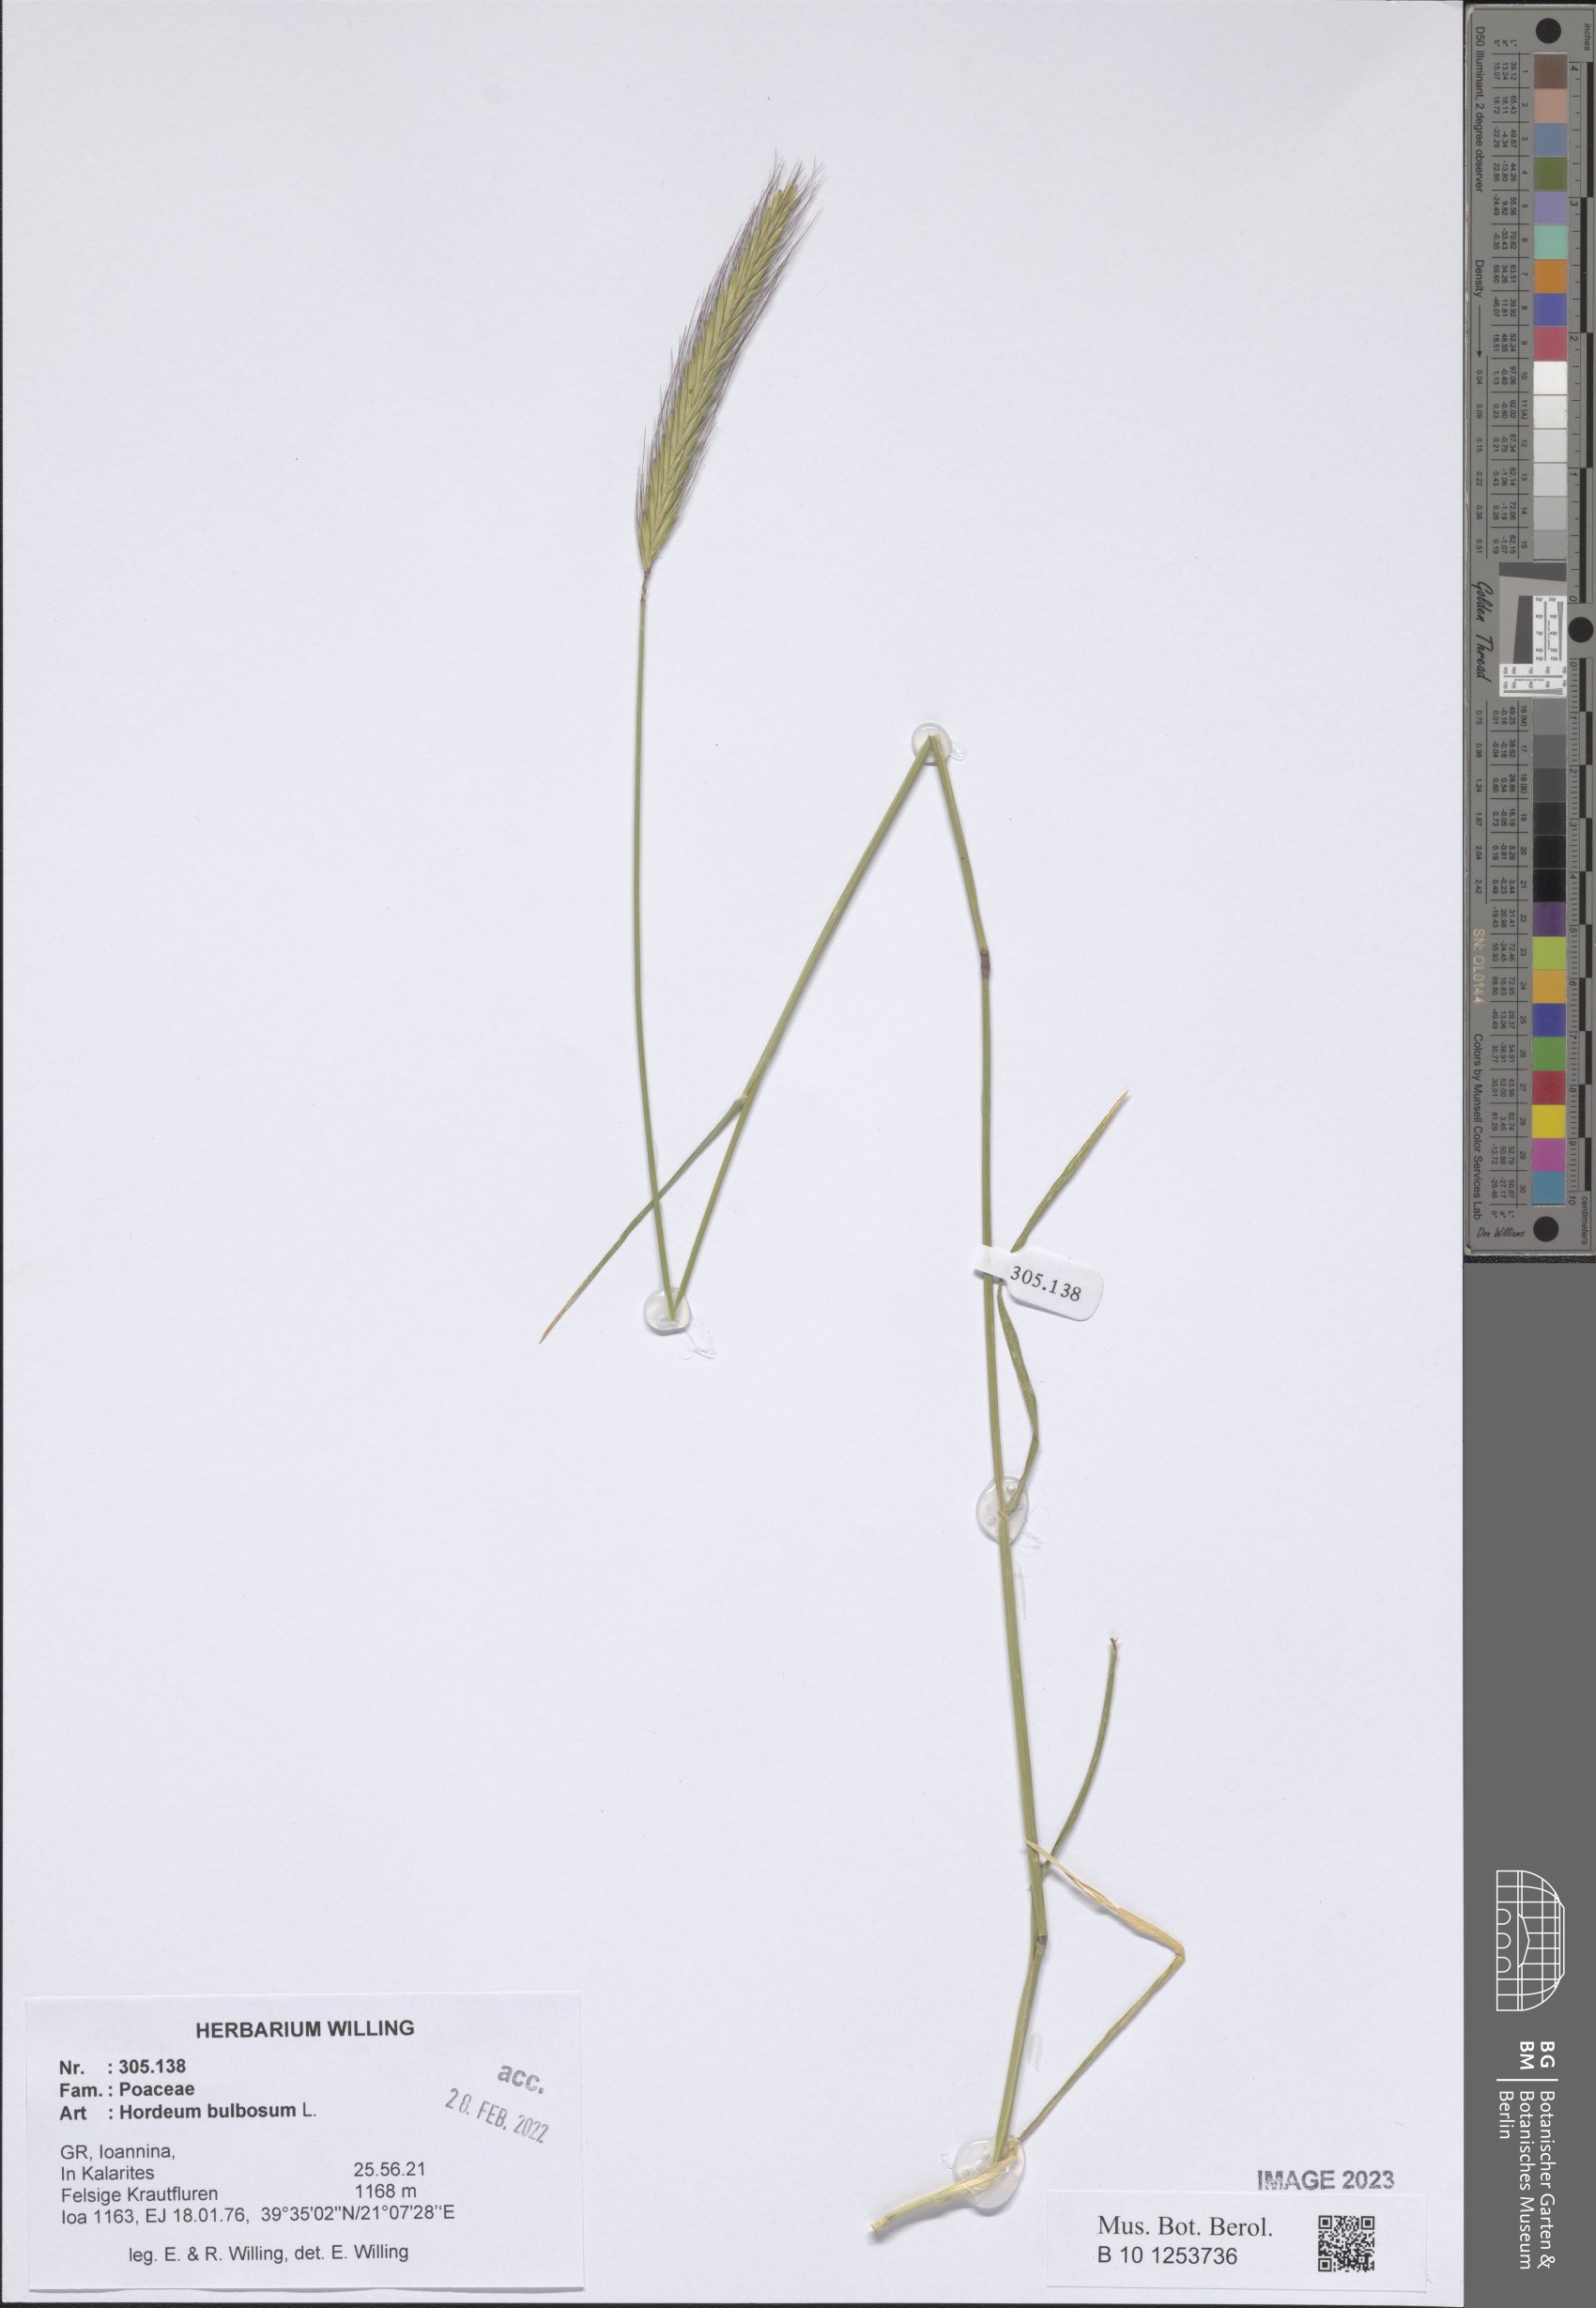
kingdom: Plantae
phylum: Tracheophyta
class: Liliopsida
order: Poales
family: Poaceae
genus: Hordeum
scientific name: Hordeum bulbosum
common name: Bulbous barley
